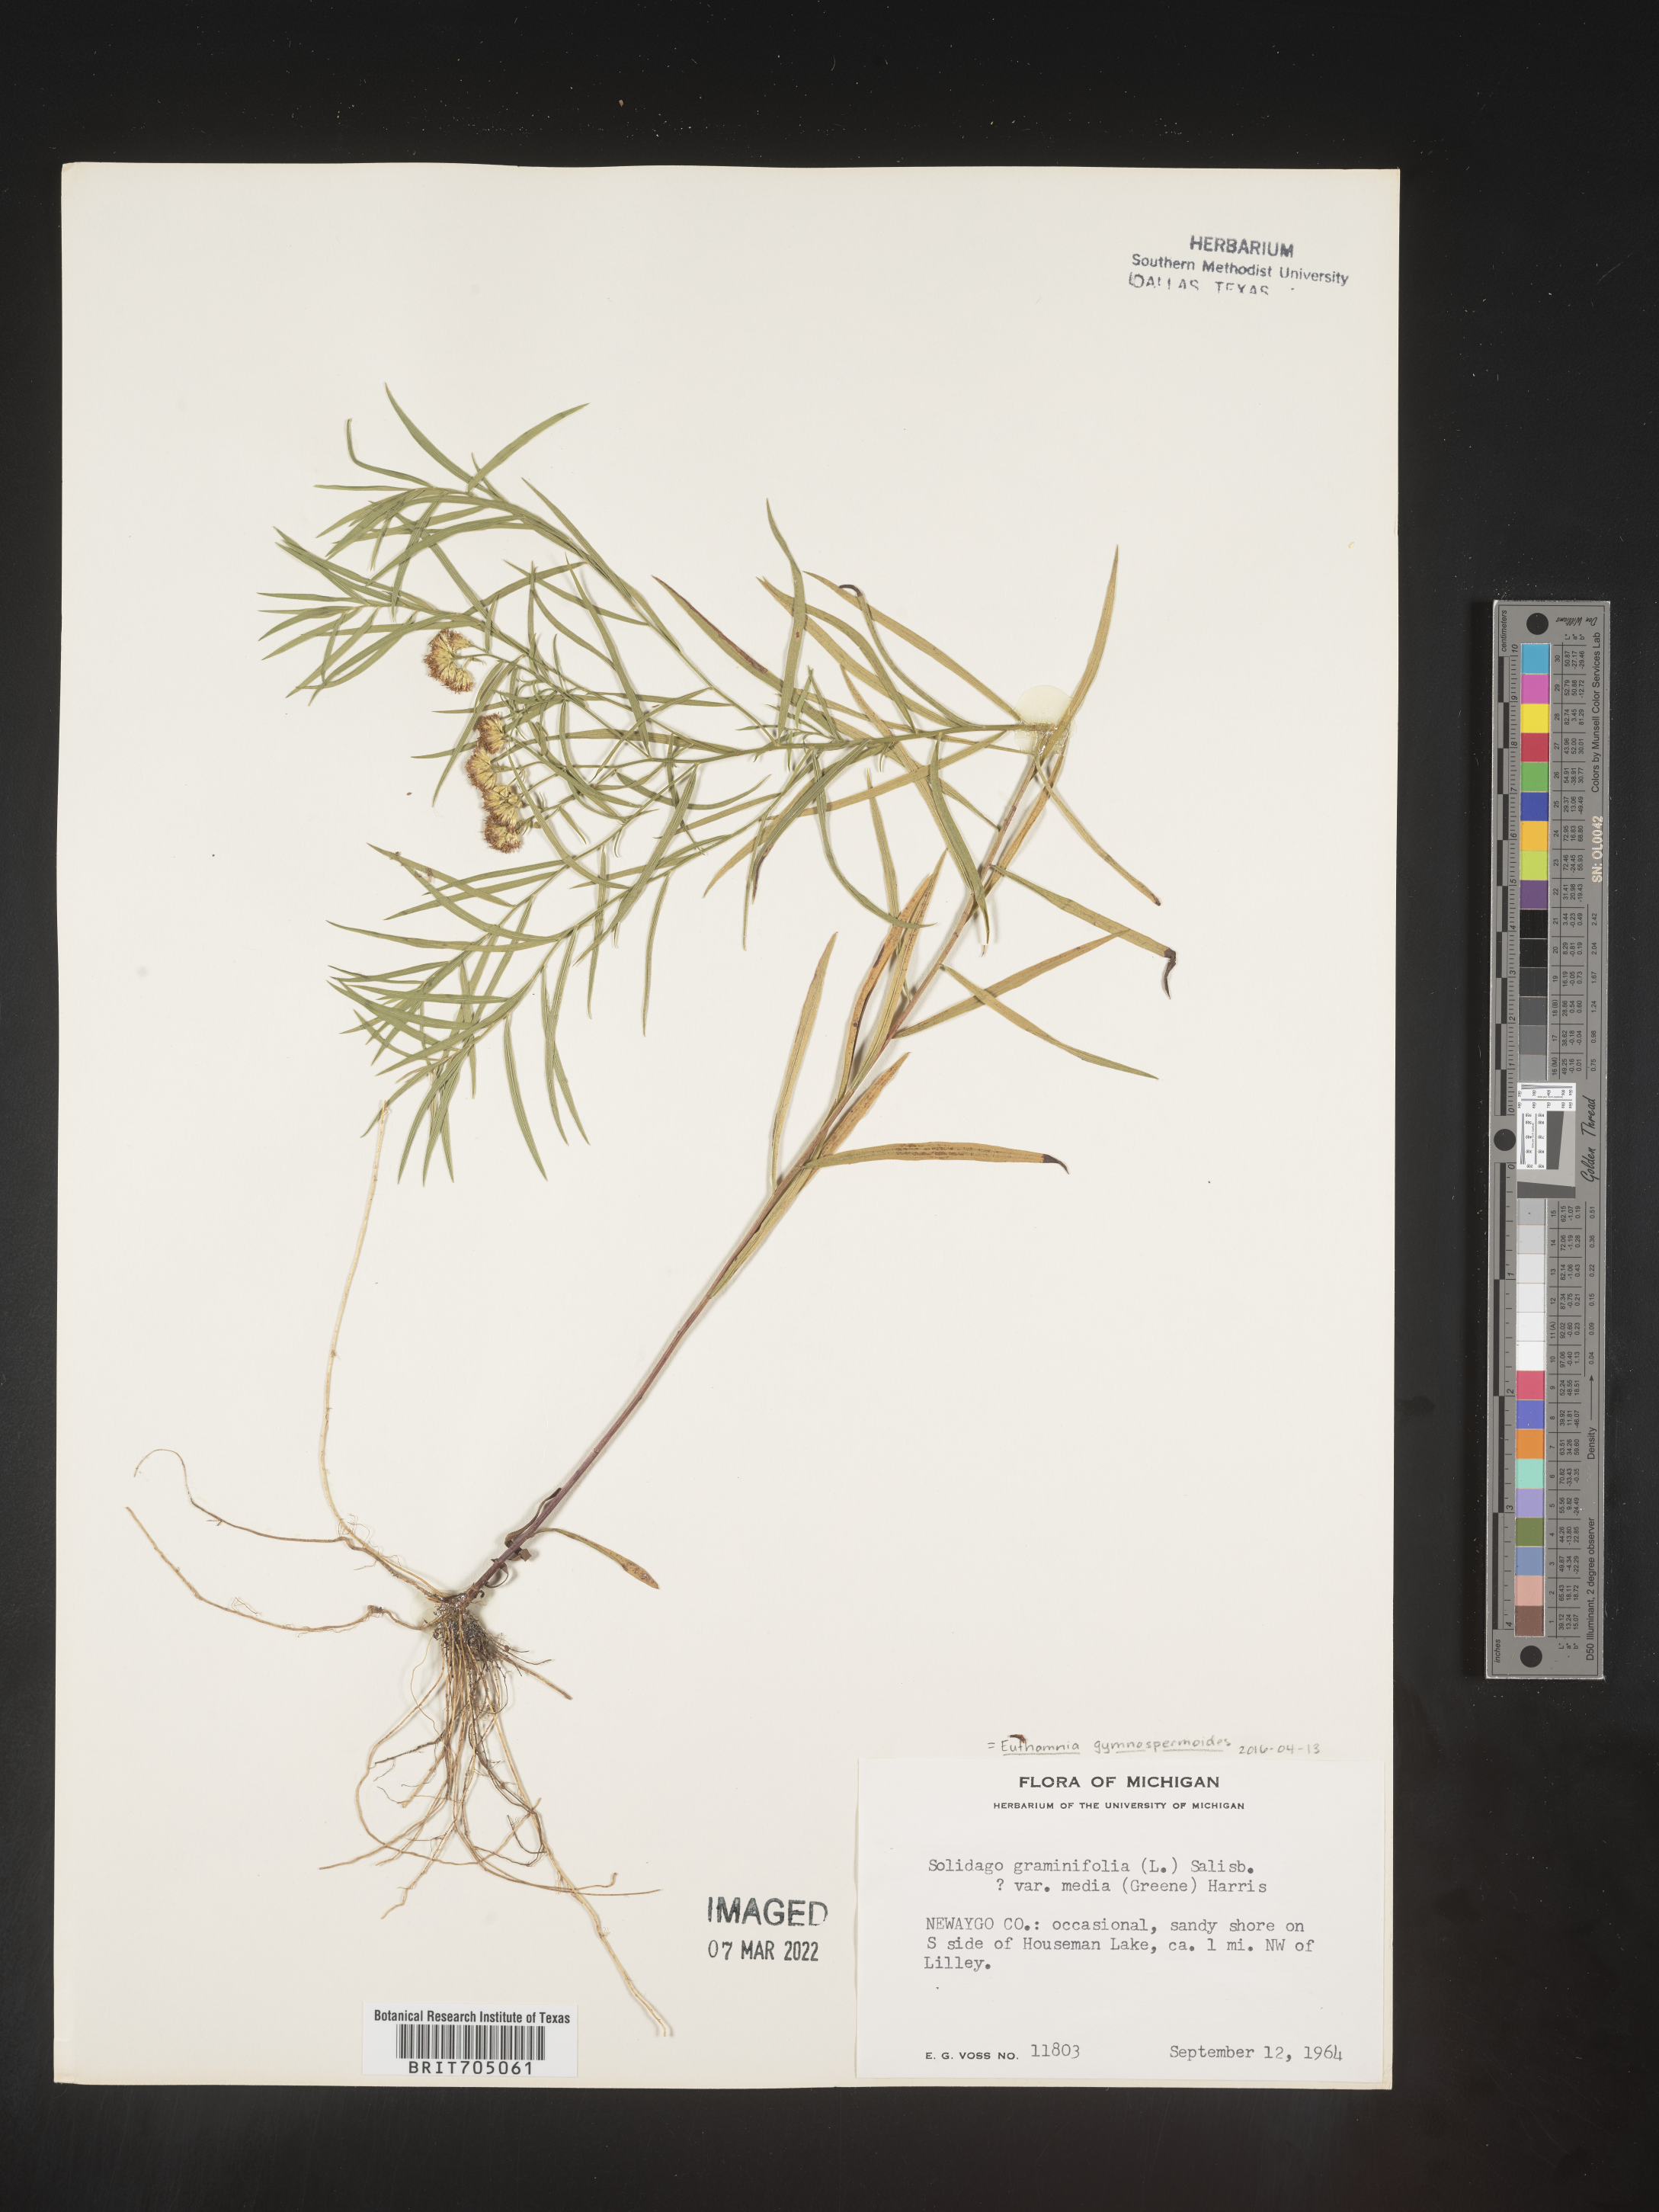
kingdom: Plantae
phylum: Tracheophyta
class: Magnoliopsida
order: Asterales
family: Asteraceae
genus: Euthamia
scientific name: Euthamia gymnospermoides
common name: Great plains goldentop
